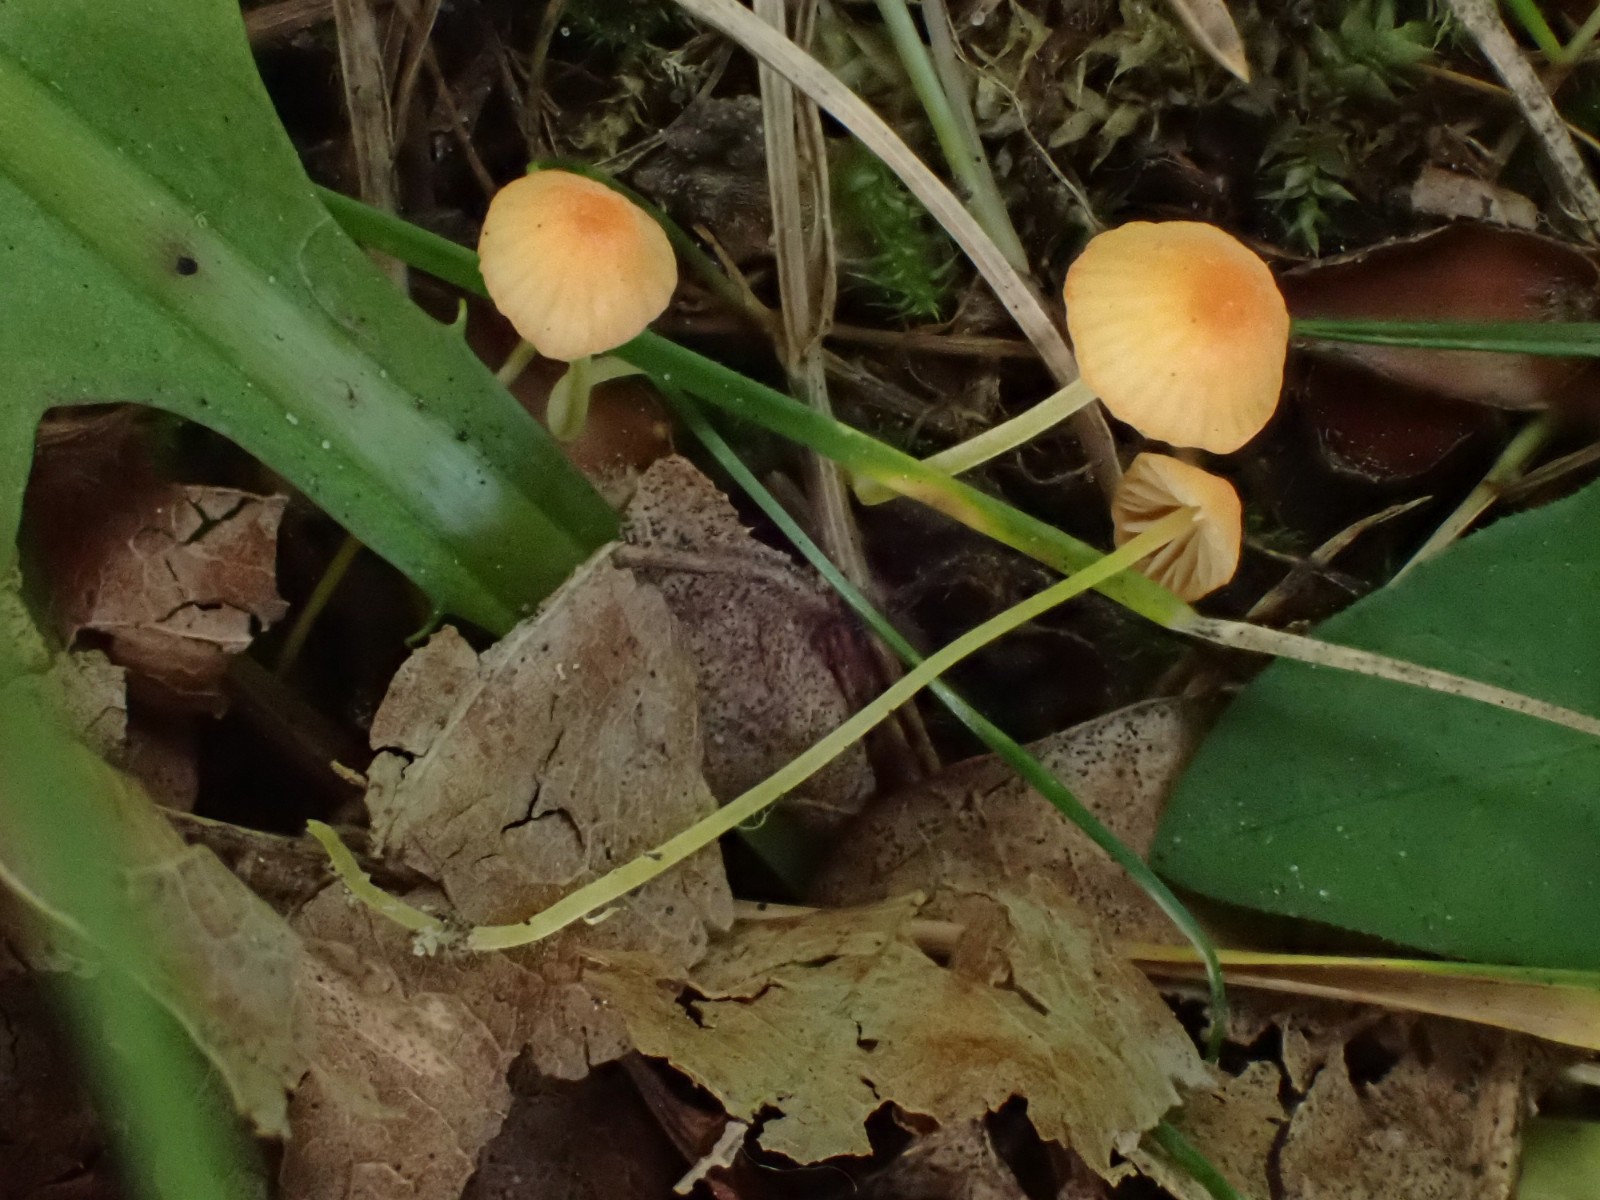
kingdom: Fungi
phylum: Basidiomycota
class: Agaricomycetes
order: Agaricales
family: Mycenaceae
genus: Mycena
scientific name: Mycena acicula
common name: orange huesvamp
